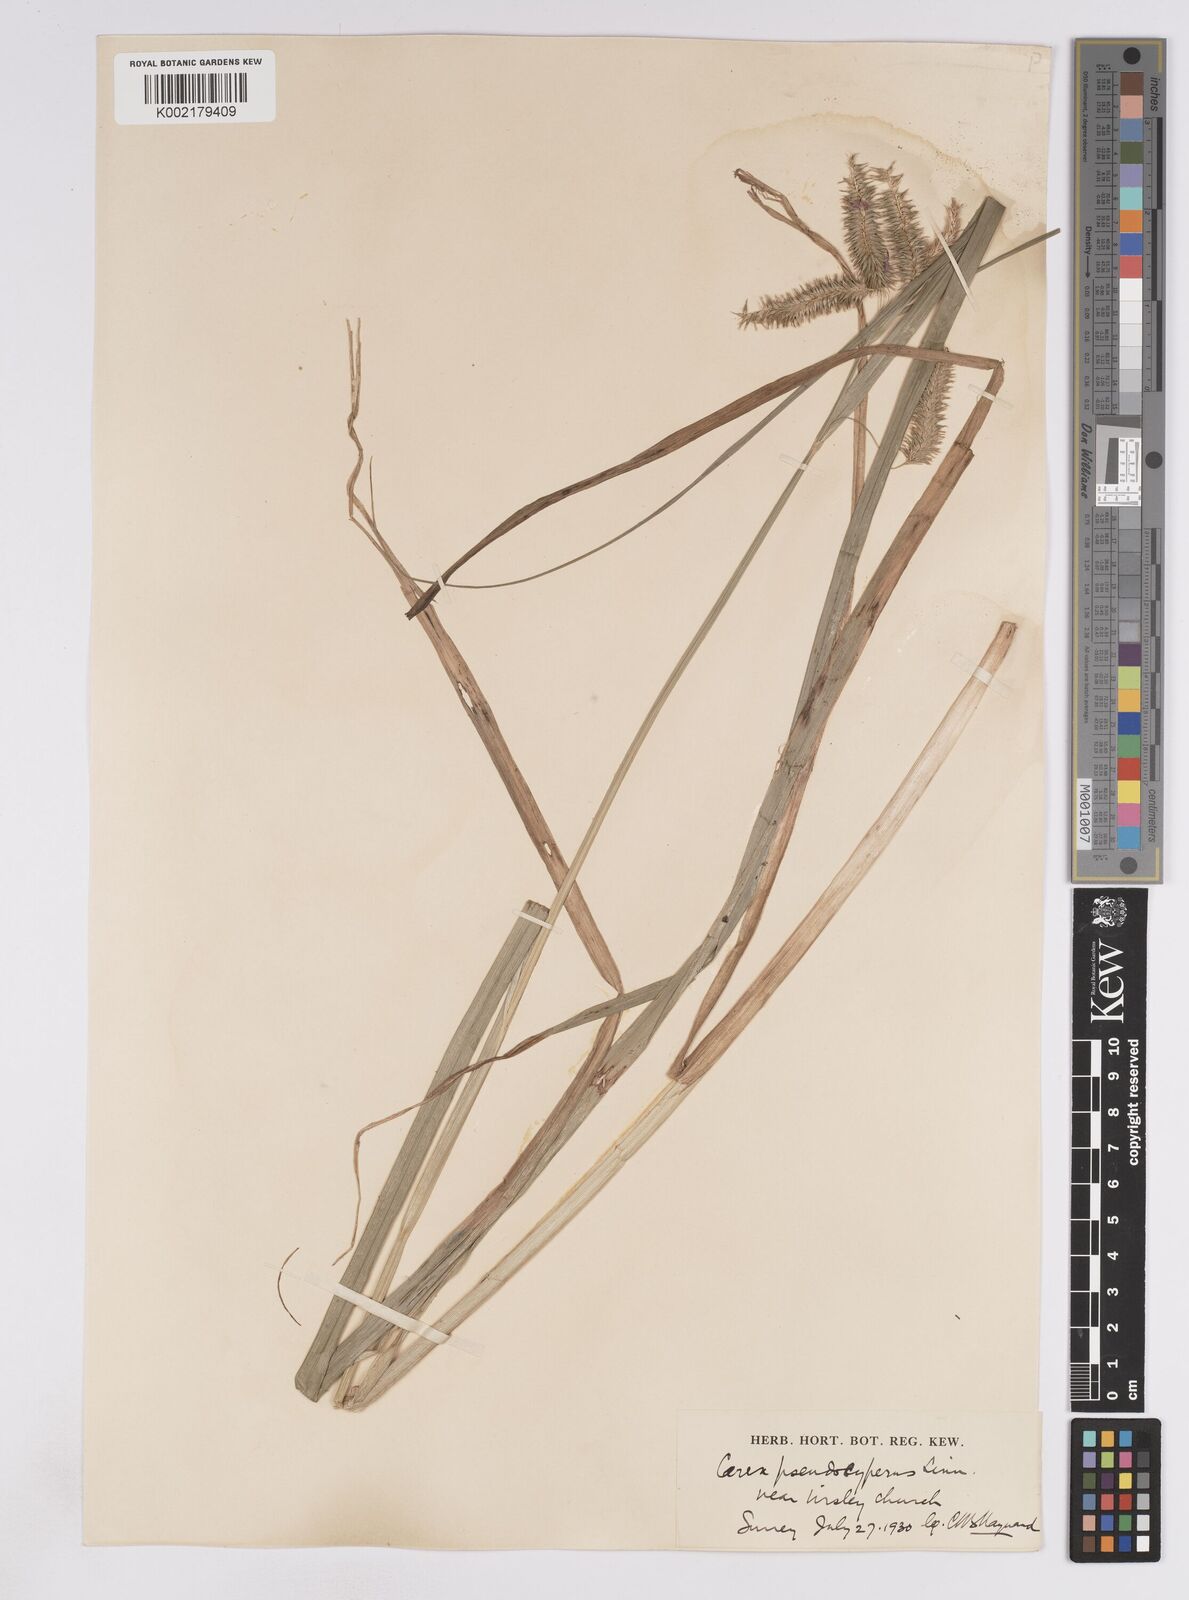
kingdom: Plantae
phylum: Tracheophyta
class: Liliopsida
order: Poales
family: Cyperaceae
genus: Carex
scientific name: Carex pseudocyperus
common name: Cyperus sedge
